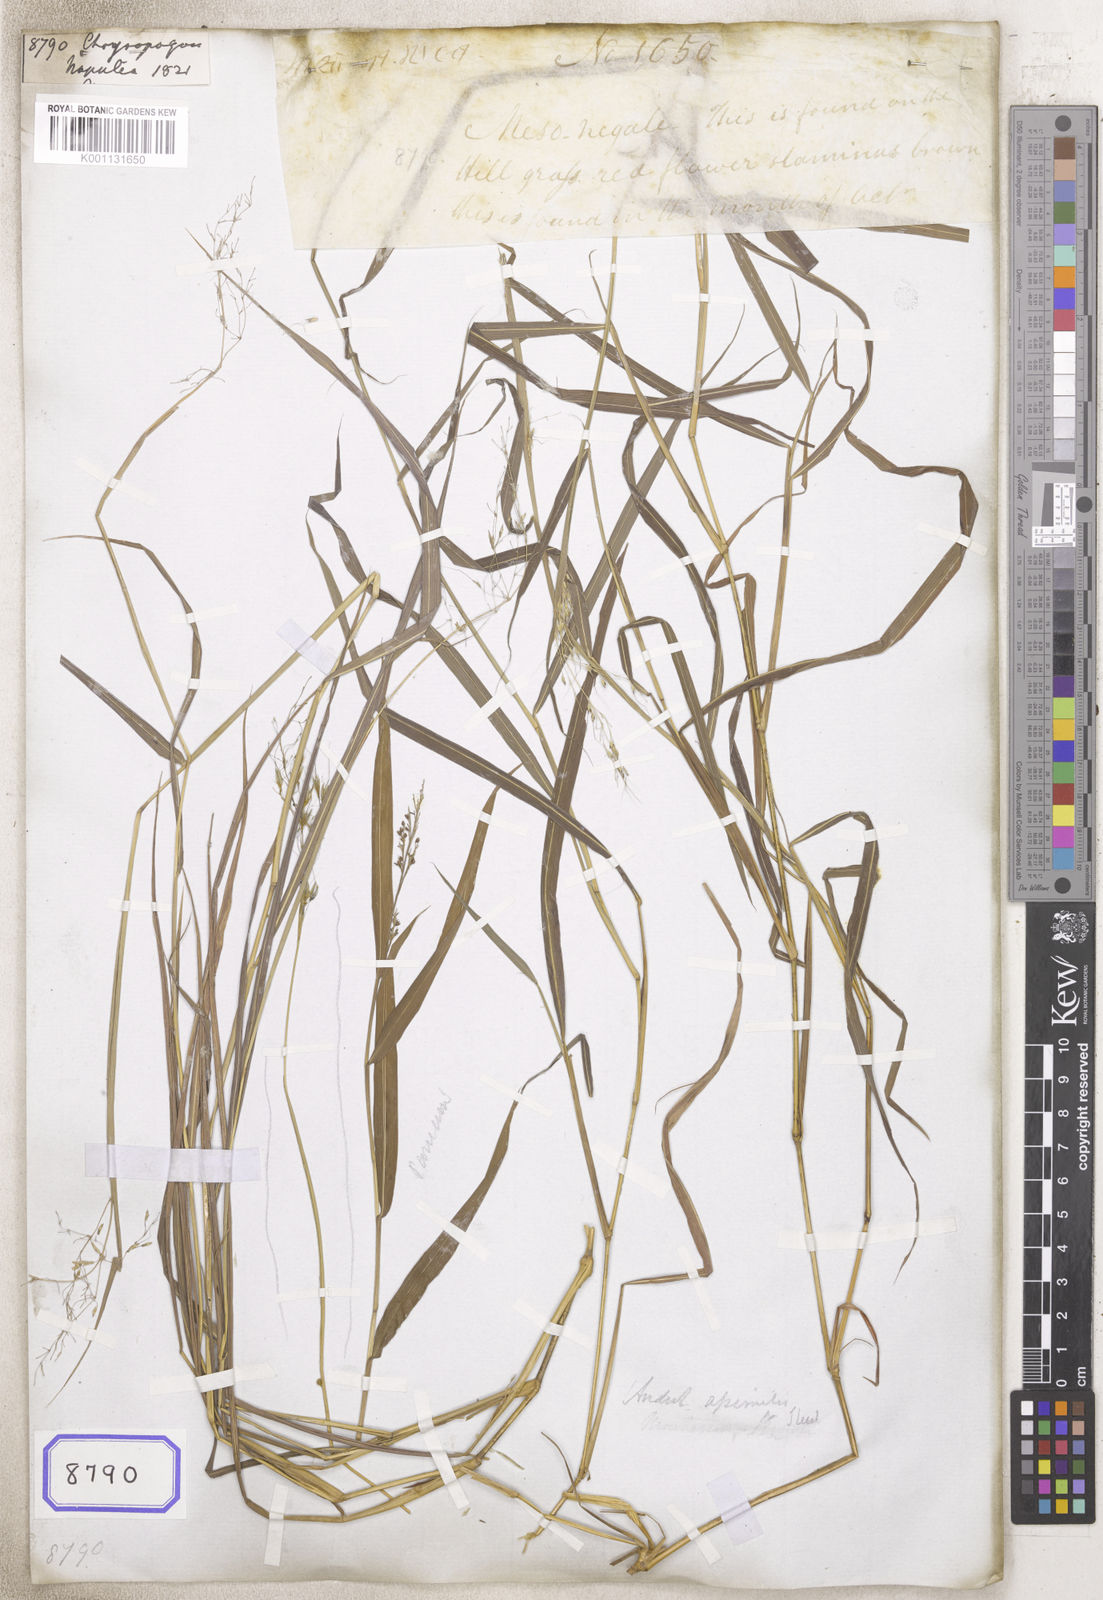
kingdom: Plantae
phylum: Tracheophyta
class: Liliopsida
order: Poales
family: Poaceae
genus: Chrysopogon
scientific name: Chrysopogon
